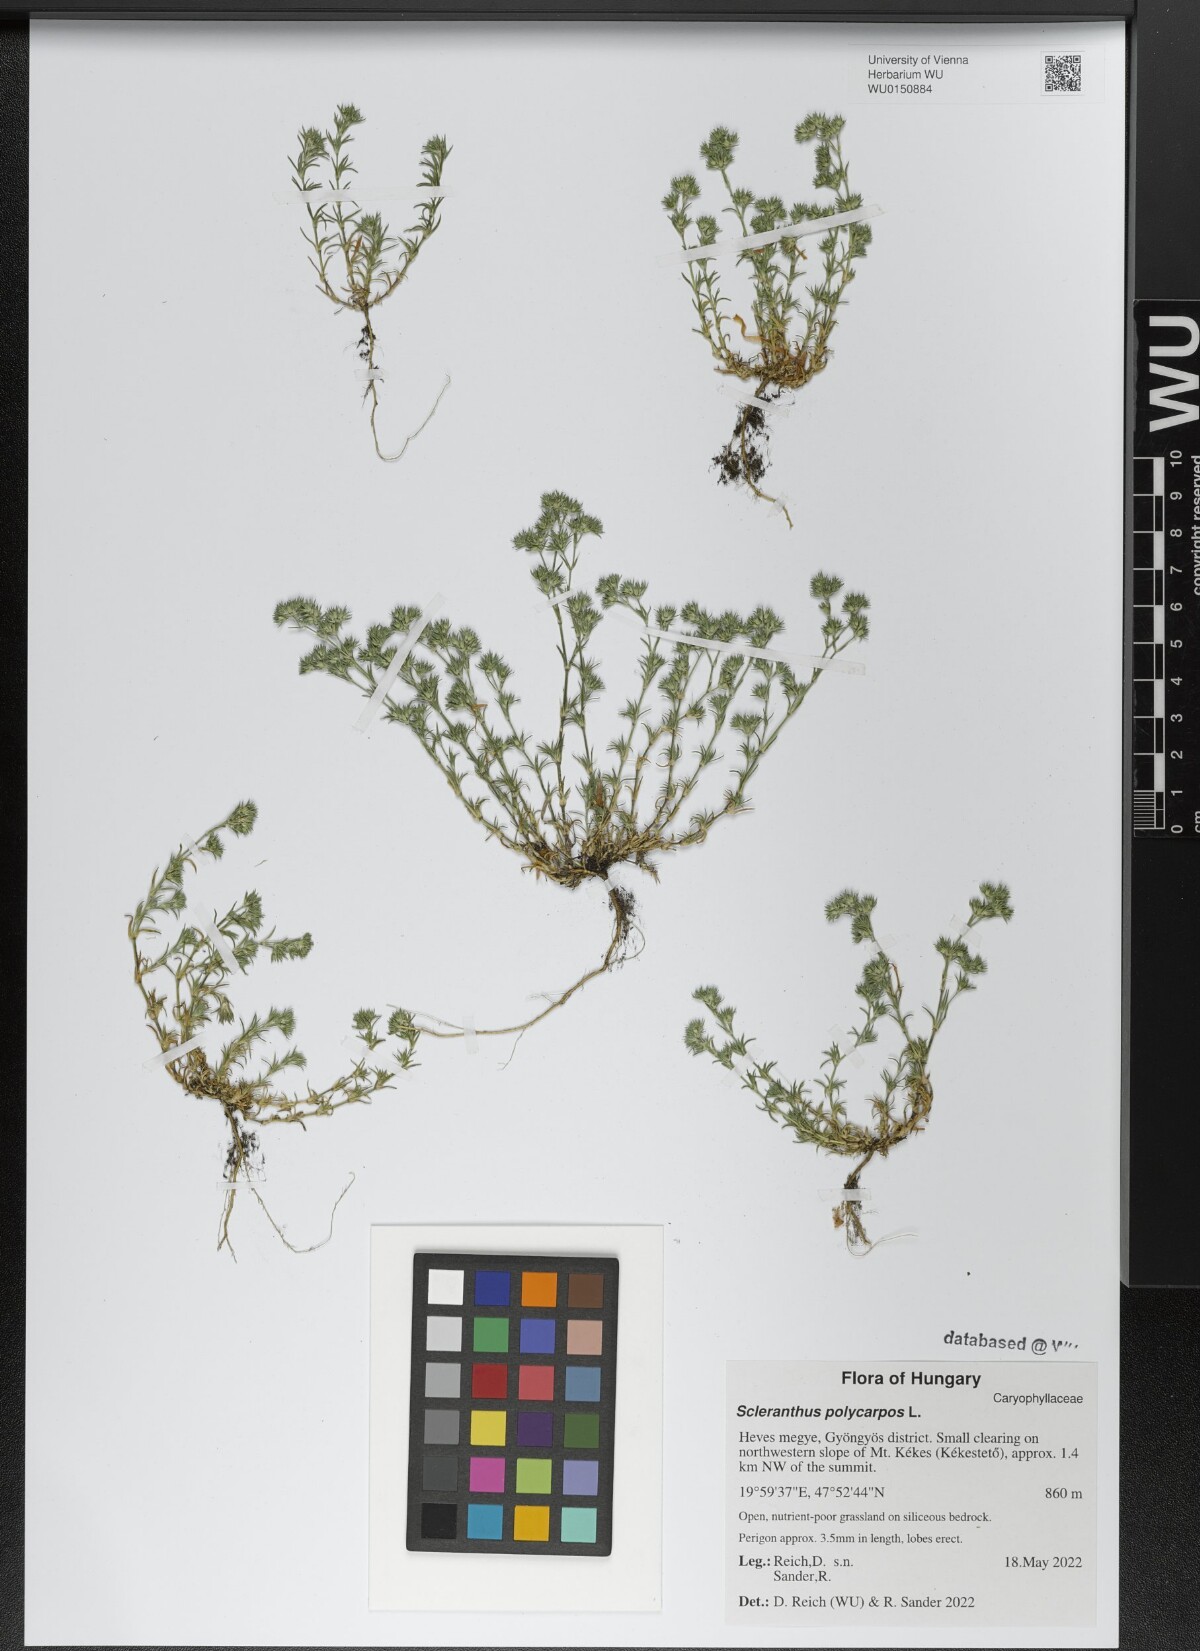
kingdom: Plantae
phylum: Tracheophyta
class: Magnoliopsida
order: Caryophyllales
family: Caryophyllaceae
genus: Scleranthus
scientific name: Scleranthus annuus
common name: Annual knawel
